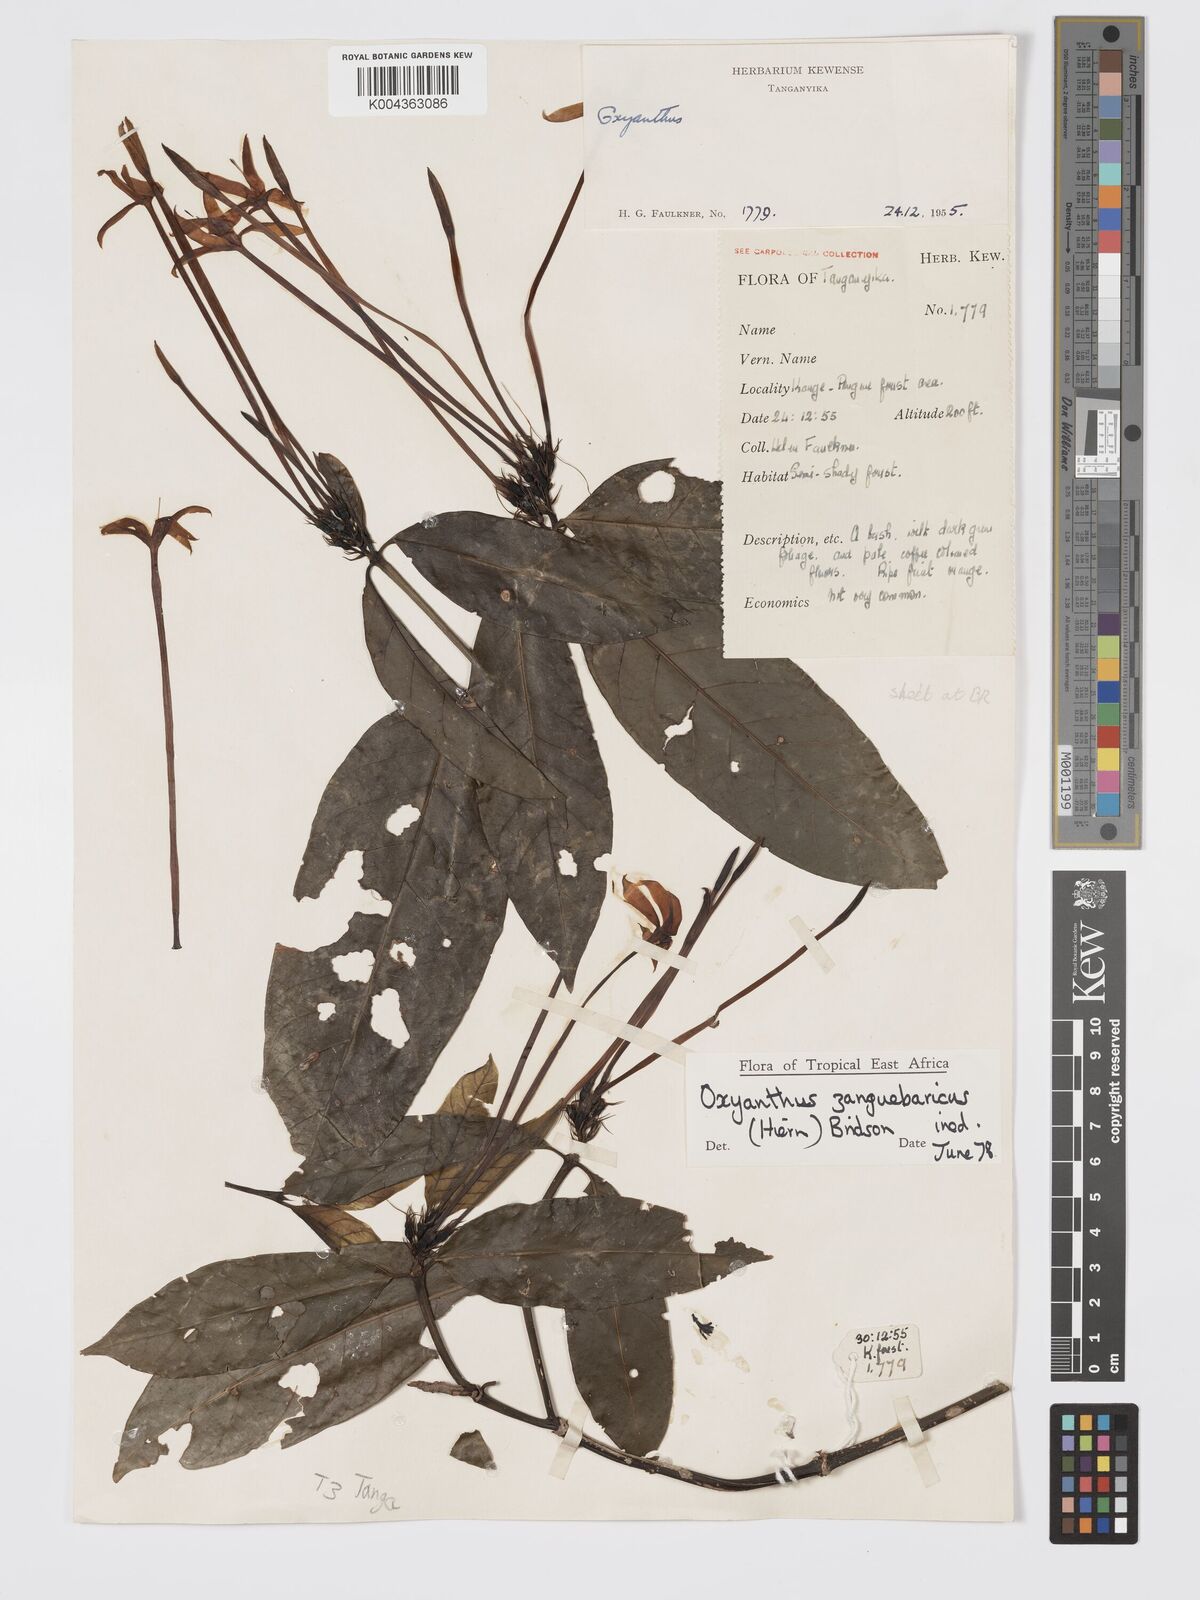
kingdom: Plantae
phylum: Tracheophyta
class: Magnoliopsida
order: Gentianales
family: Rubiaceae
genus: Oxyanthus
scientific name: Oxyanthus zanguebaricus
